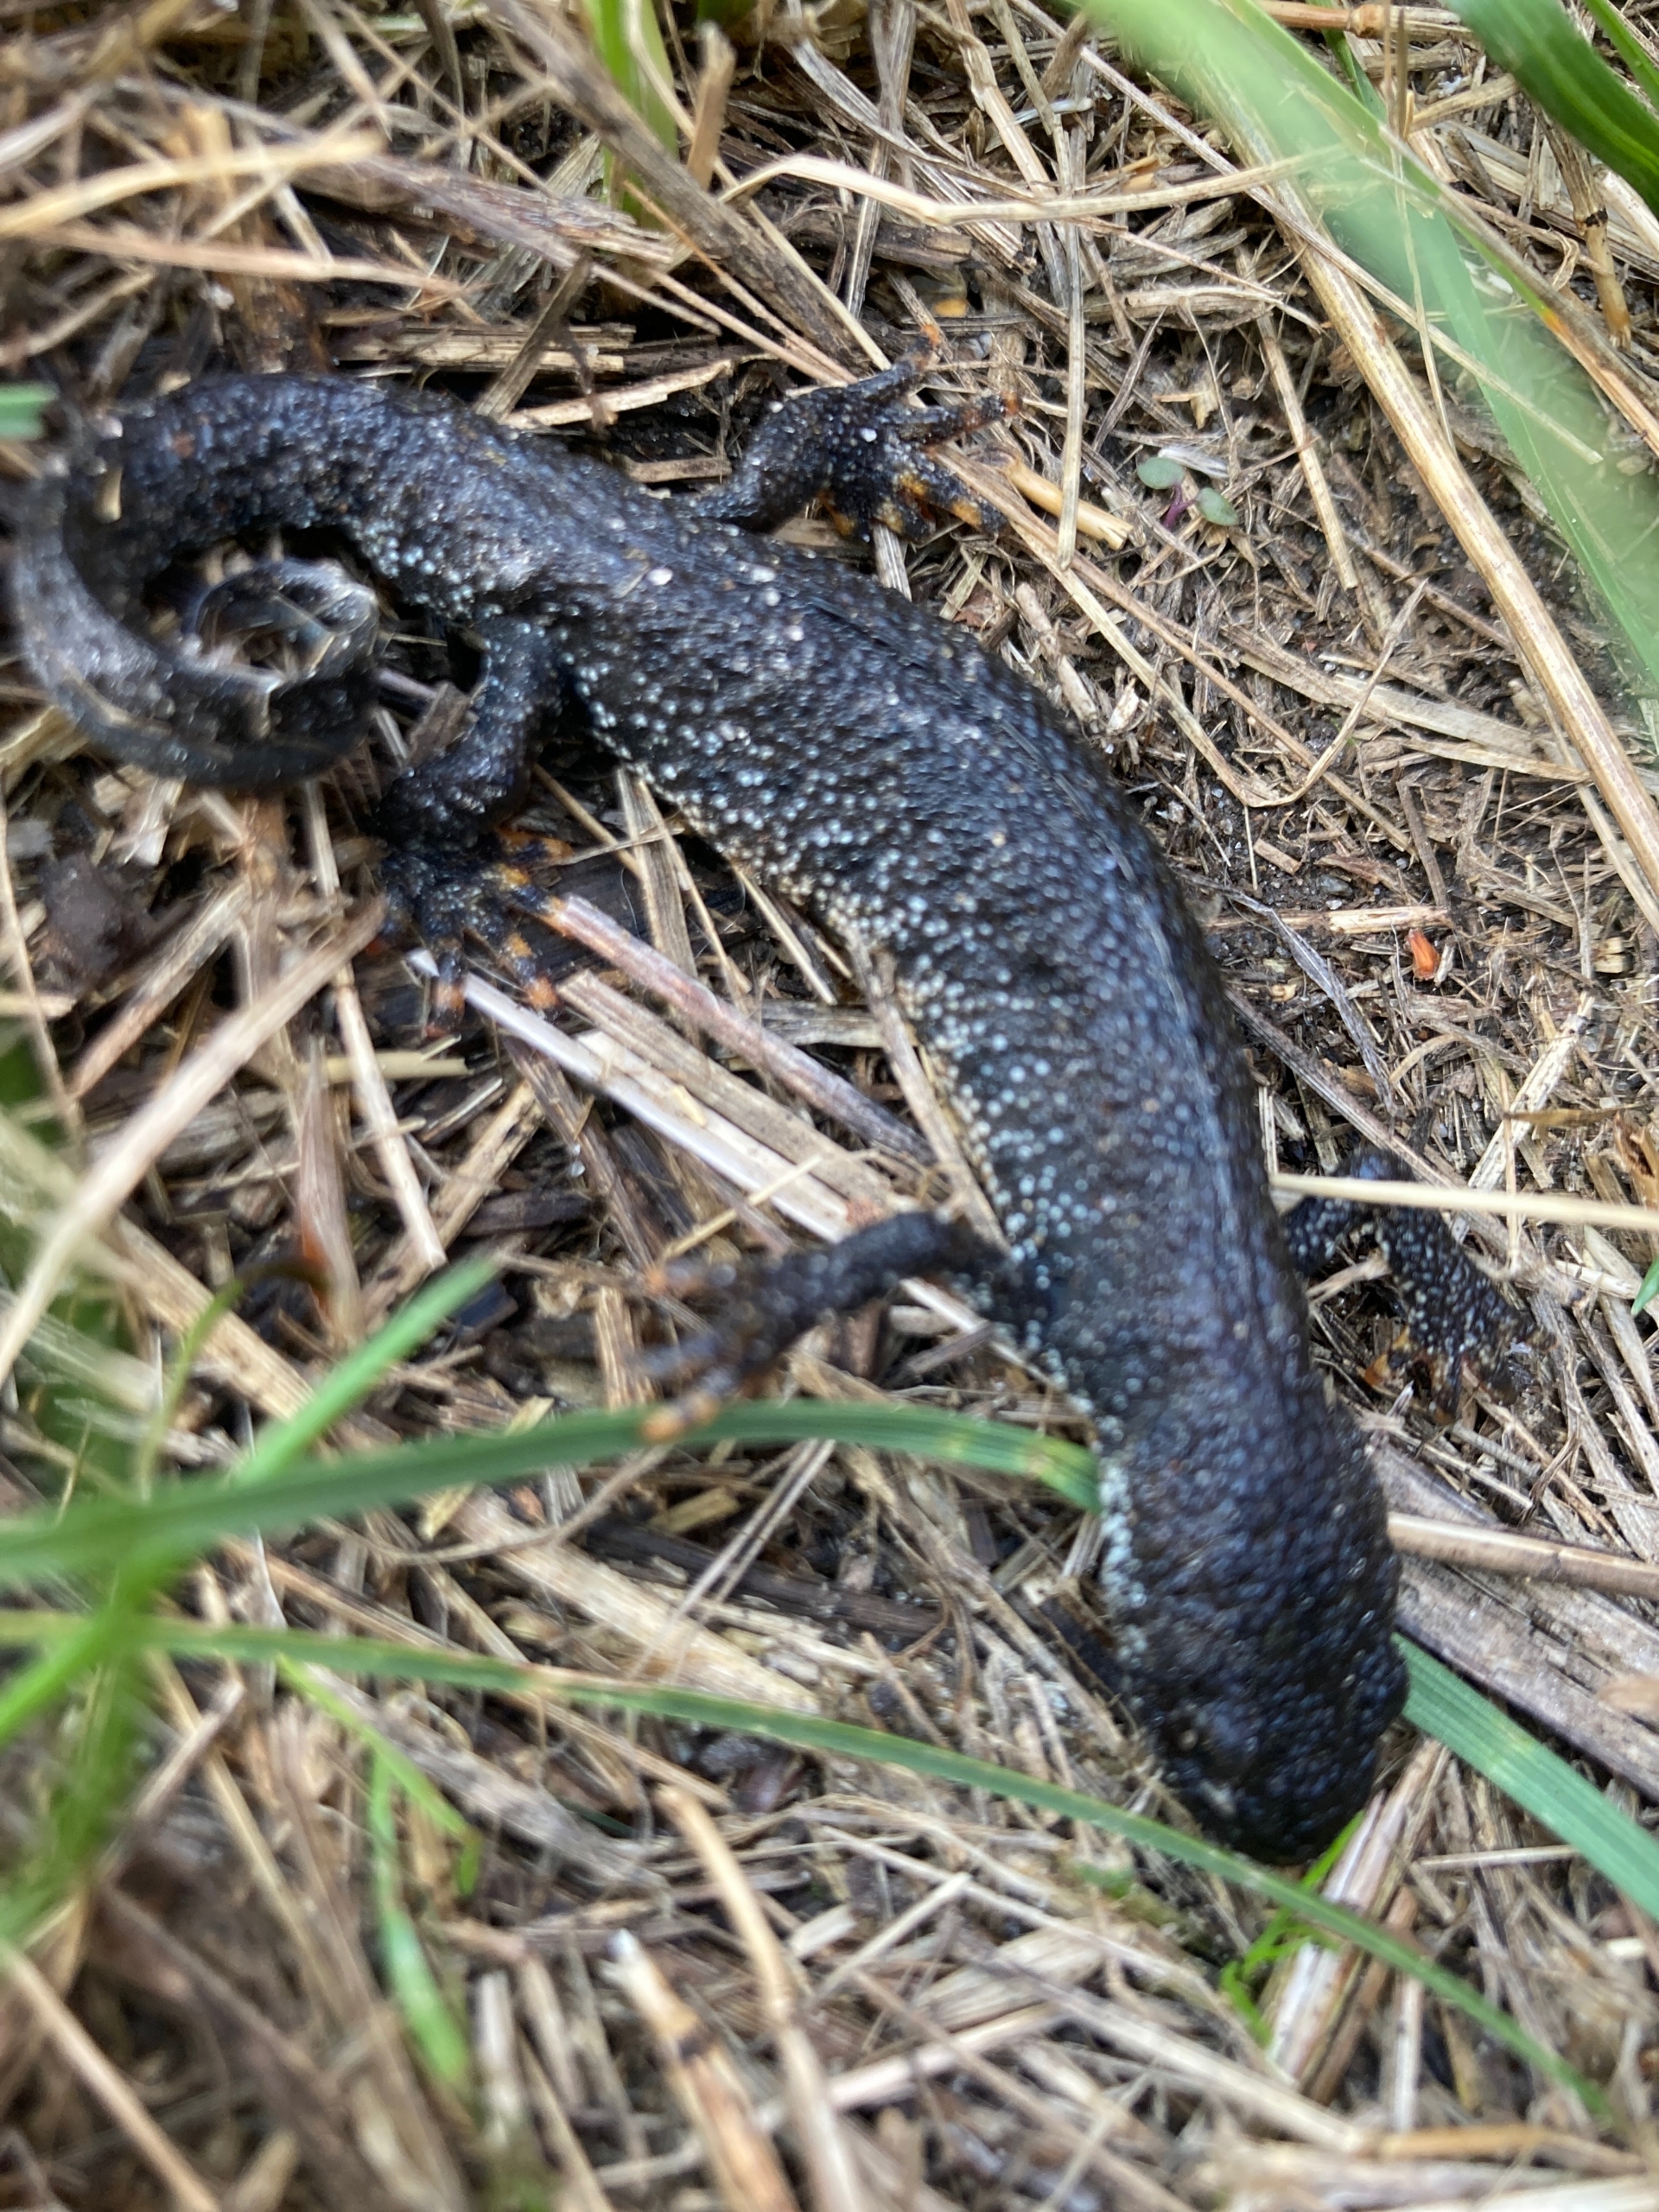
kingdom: Animalia
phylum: Chordata
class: Amphibia
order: Caudata
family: Salamandridae
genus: Triturus
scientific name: Triturus cristatus
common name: Stor vandsalamander
